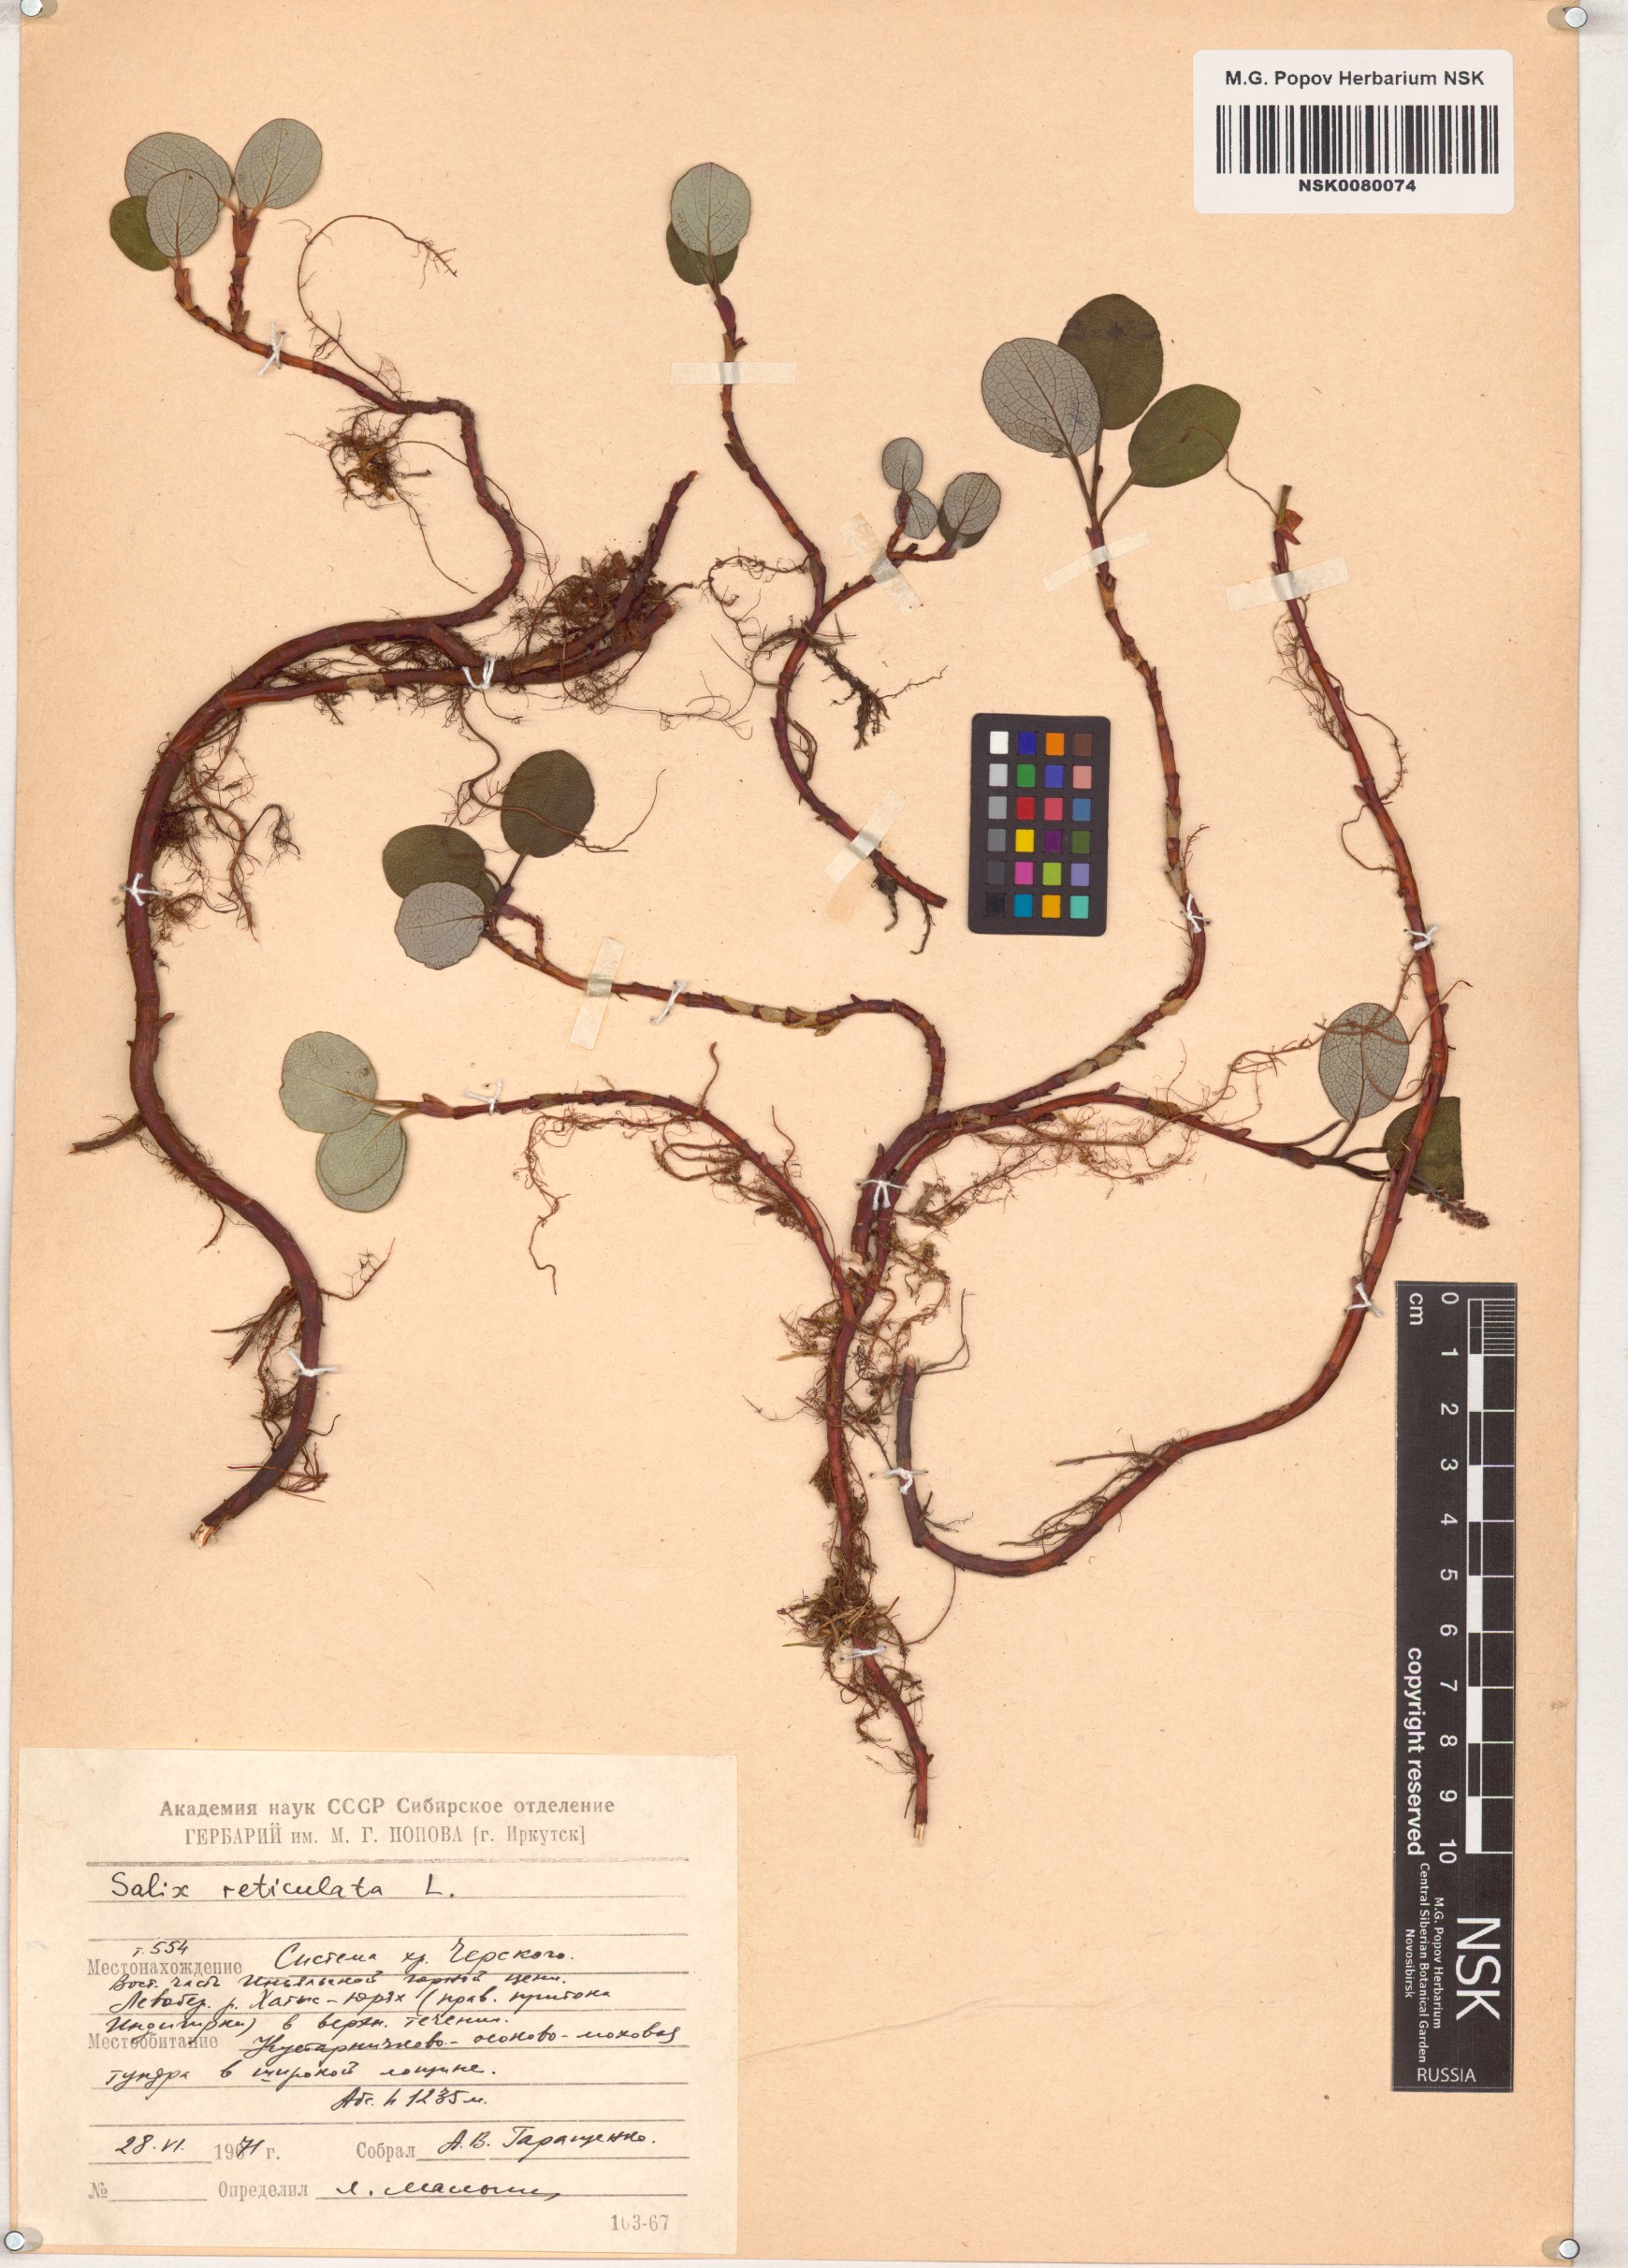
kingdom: Plantae
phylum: Tracheophyta
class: Magnoliopsida
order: Malpighiales
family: Salicaceae
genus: Salix
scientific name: Salix reticulata
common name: Net-leaved willow
